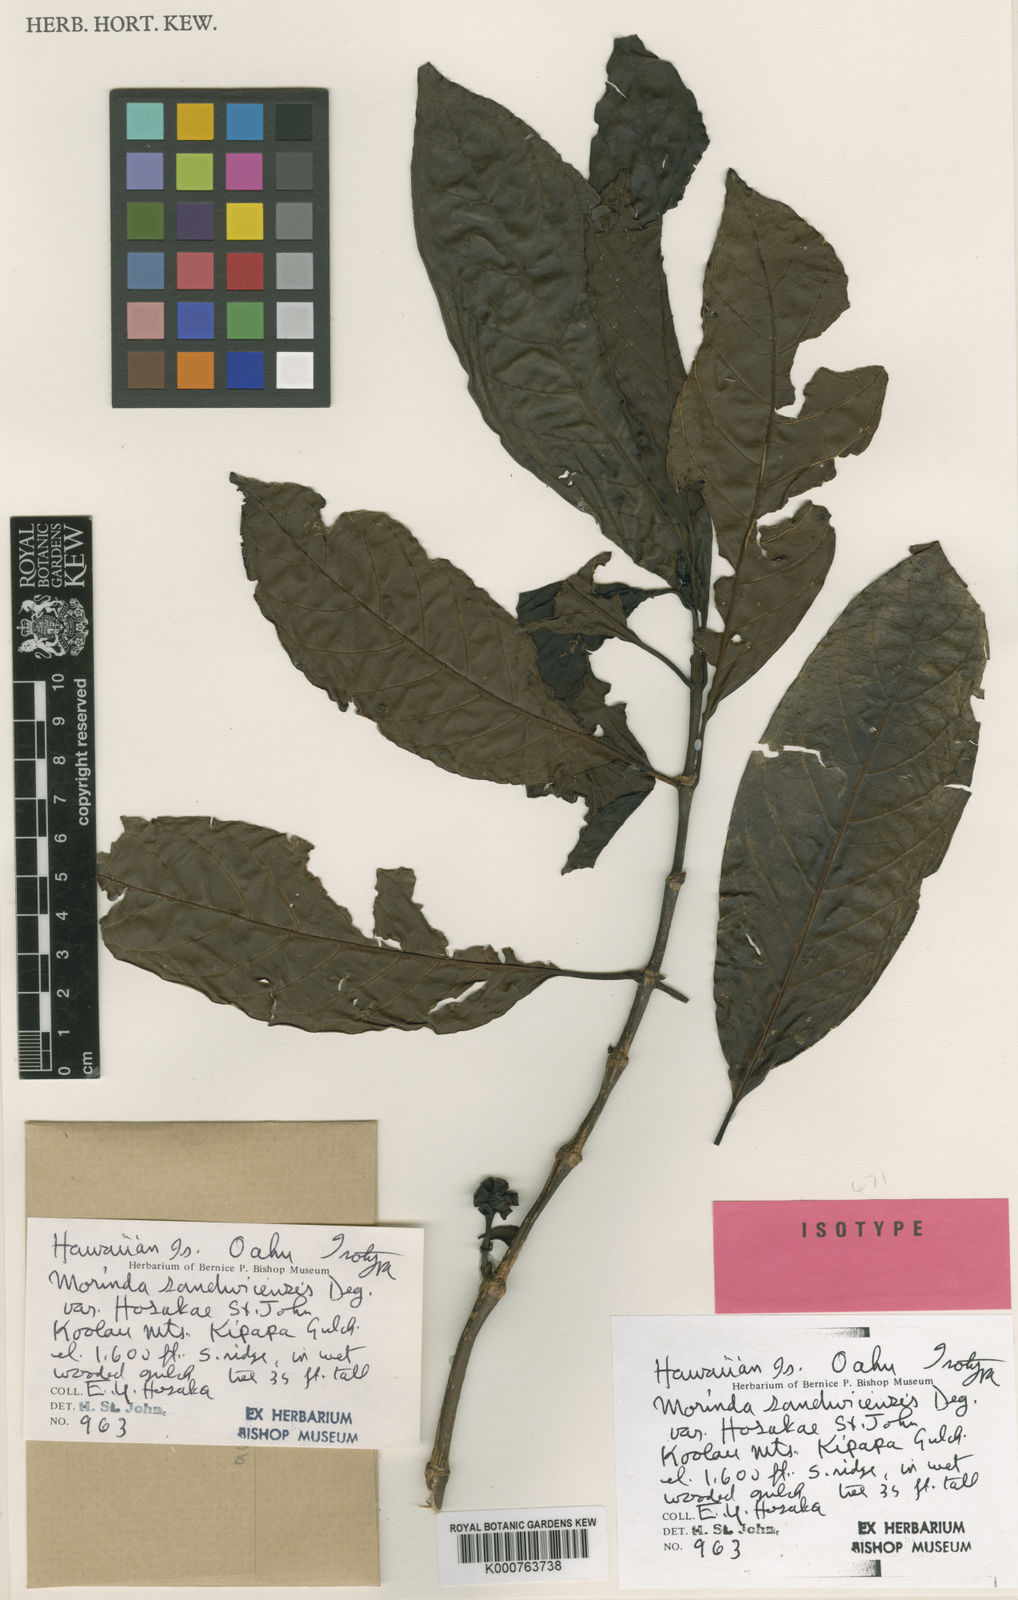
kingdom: Plantae
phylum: Tracheophyta
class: Magnoliopsida
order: Gentianales
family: Rubiaceae
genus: Gynochthodes
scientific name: Gynochthodes trimera
